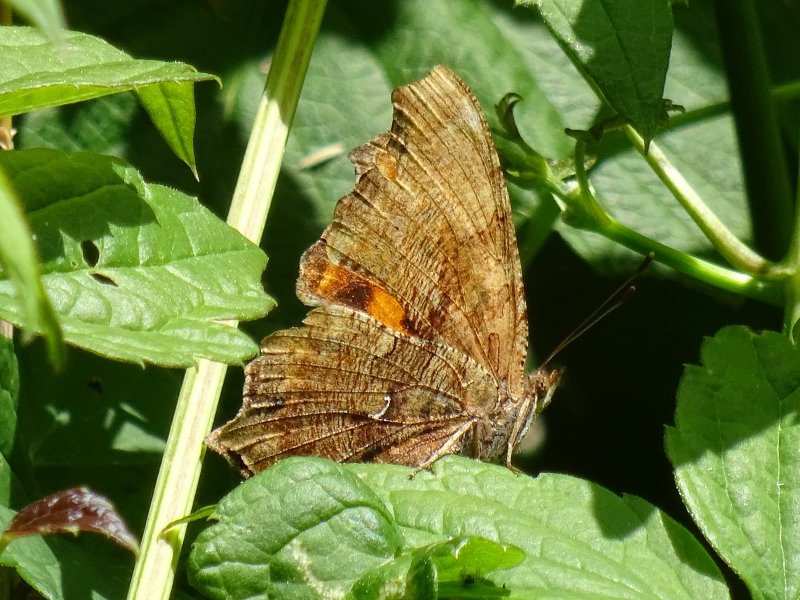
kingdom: Animalia
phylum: Arthropoda
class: Insecta
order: Lepidoptera
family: Nymphalidae
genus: Polygonia
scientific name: Polygonia comma
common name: Eastern Comma
